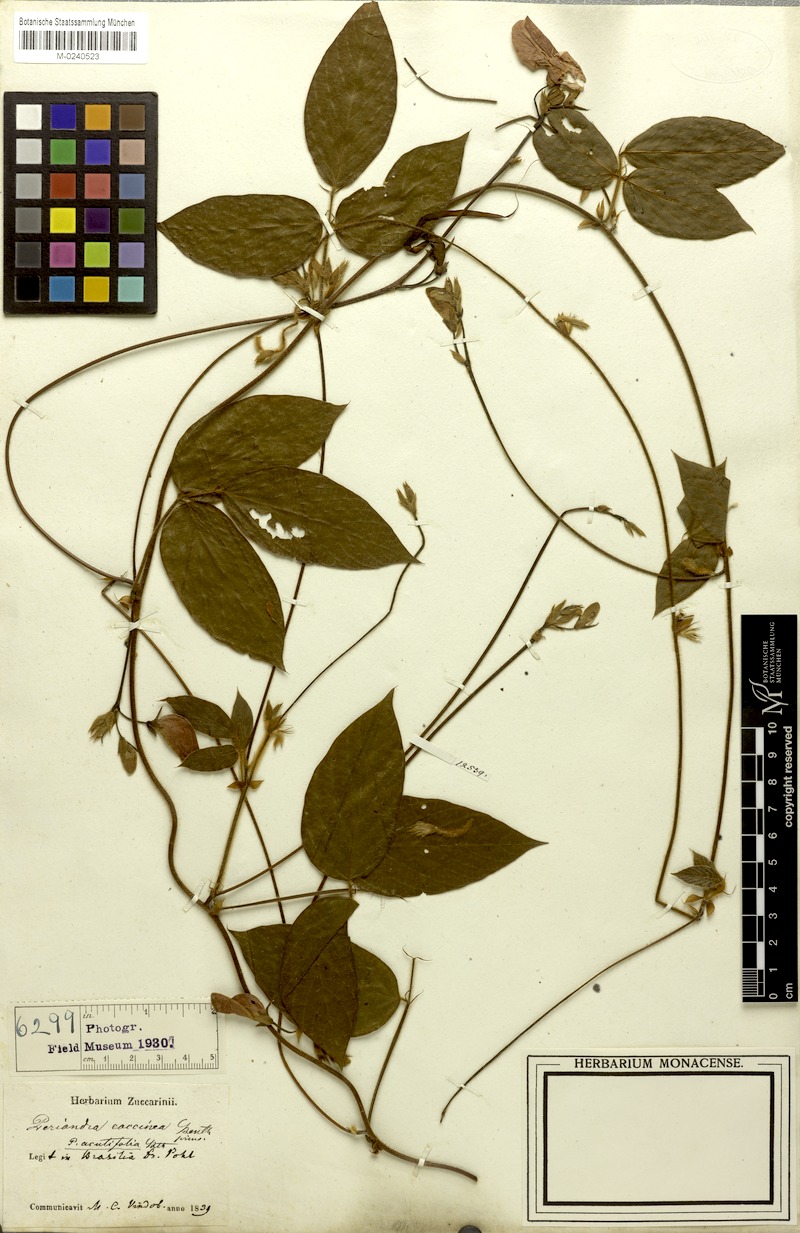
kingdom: Plantae
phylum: Tracheophyta
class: Magnoliopsida
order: Fabales
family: Fabaceae
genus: Periandra
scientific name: Periandra coccinea
